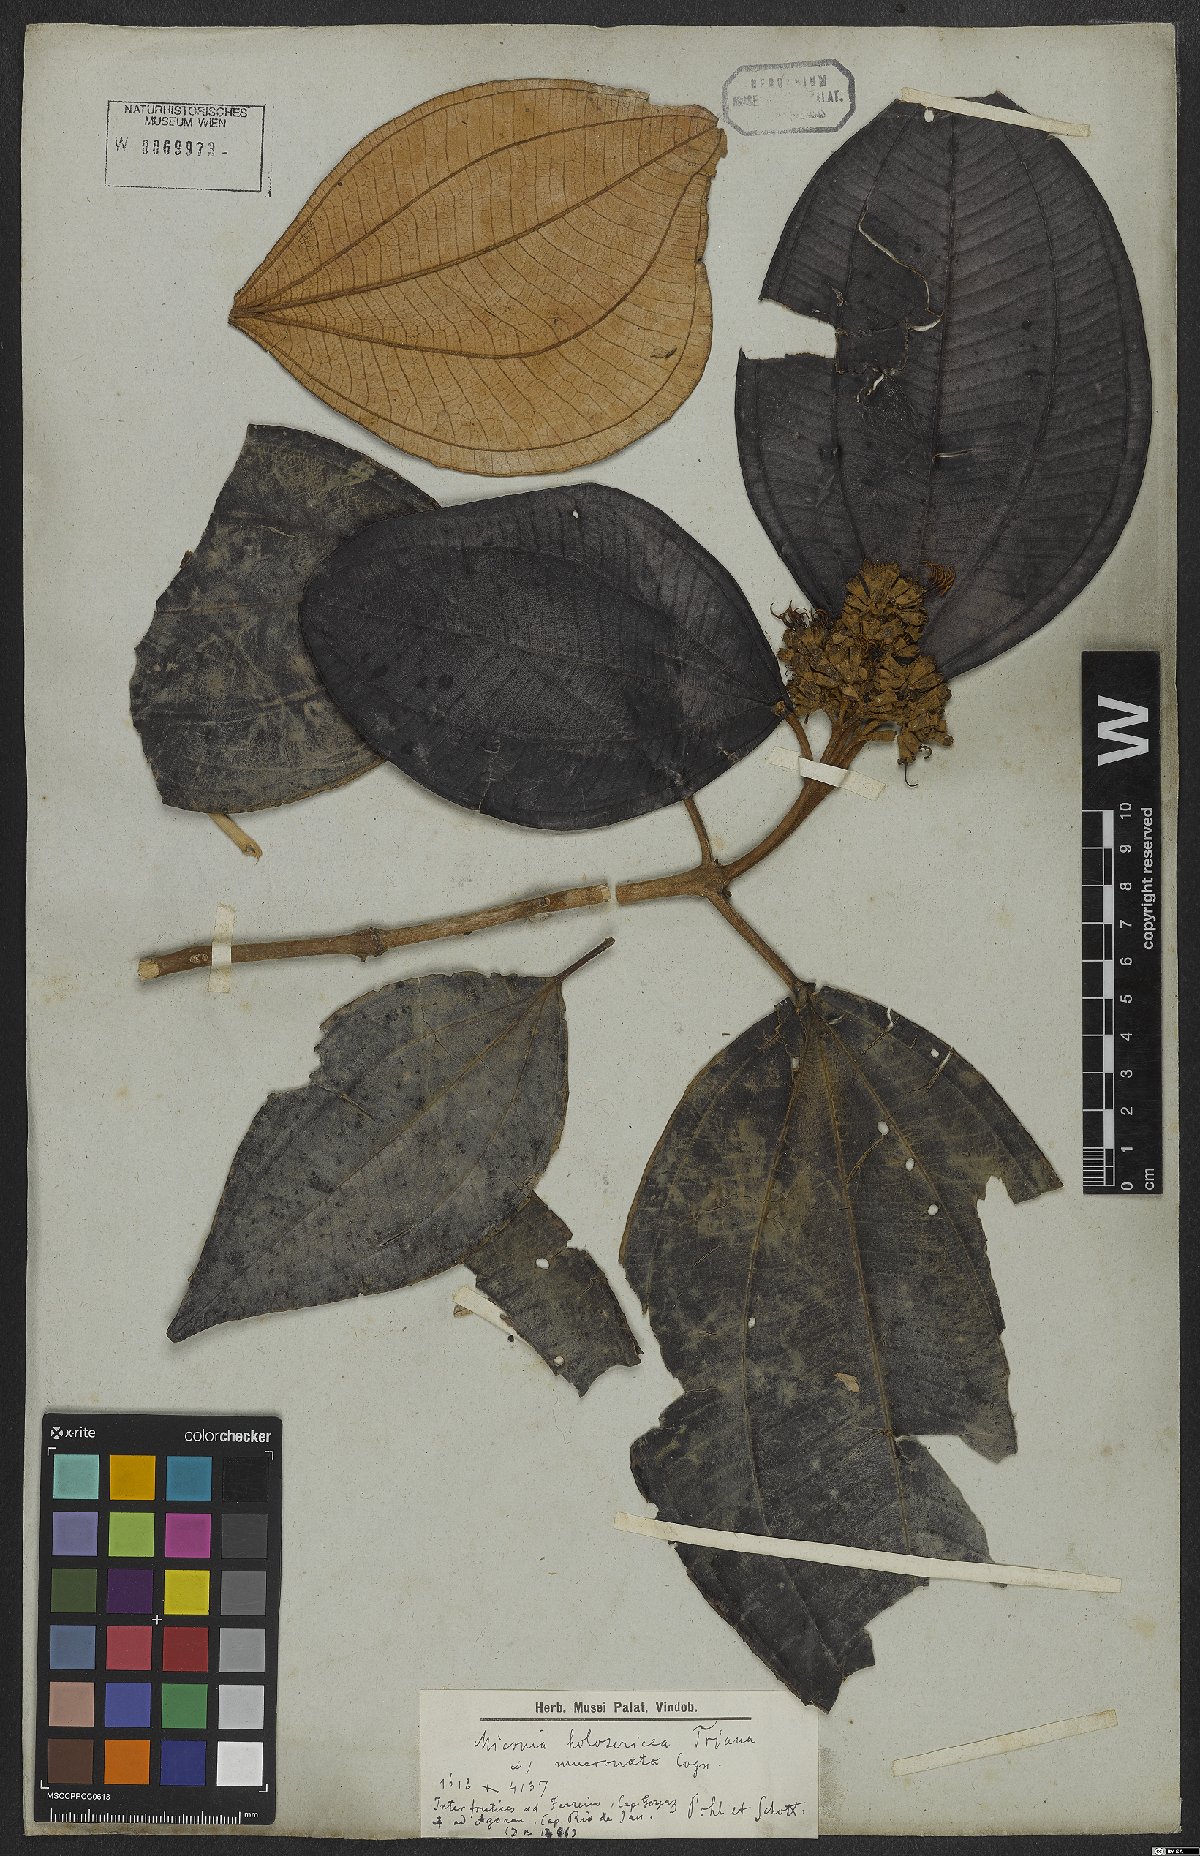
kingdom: Plantae
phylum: Tracheophyta
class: Magnoliopsida
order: Myrtales
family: Melastomataceae
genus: Miconia
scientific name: Miconia holosericea
